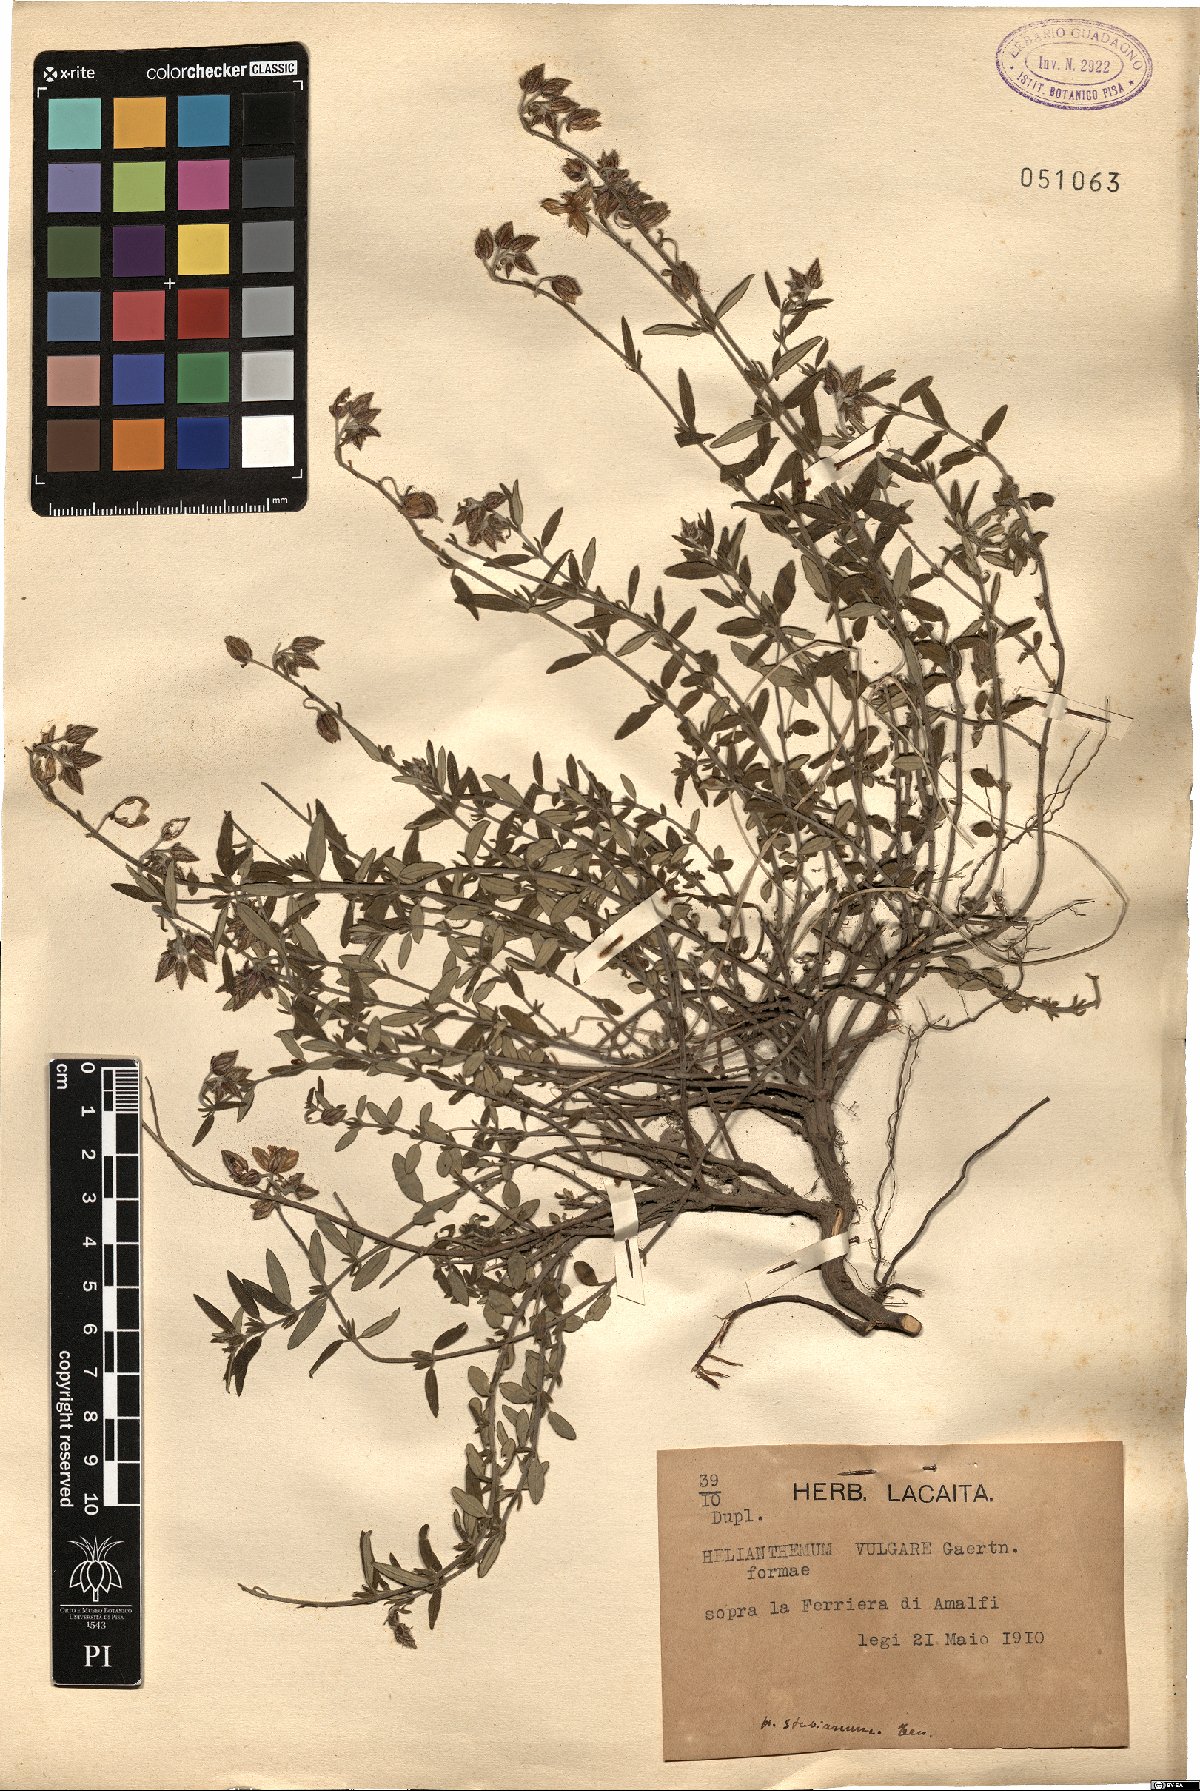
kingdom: Plantae
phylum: Tracheophyta
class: Magnoliopsida
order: Malvales
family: Cistaceae
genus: Helianthemum
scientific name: Helianthemum croceum
